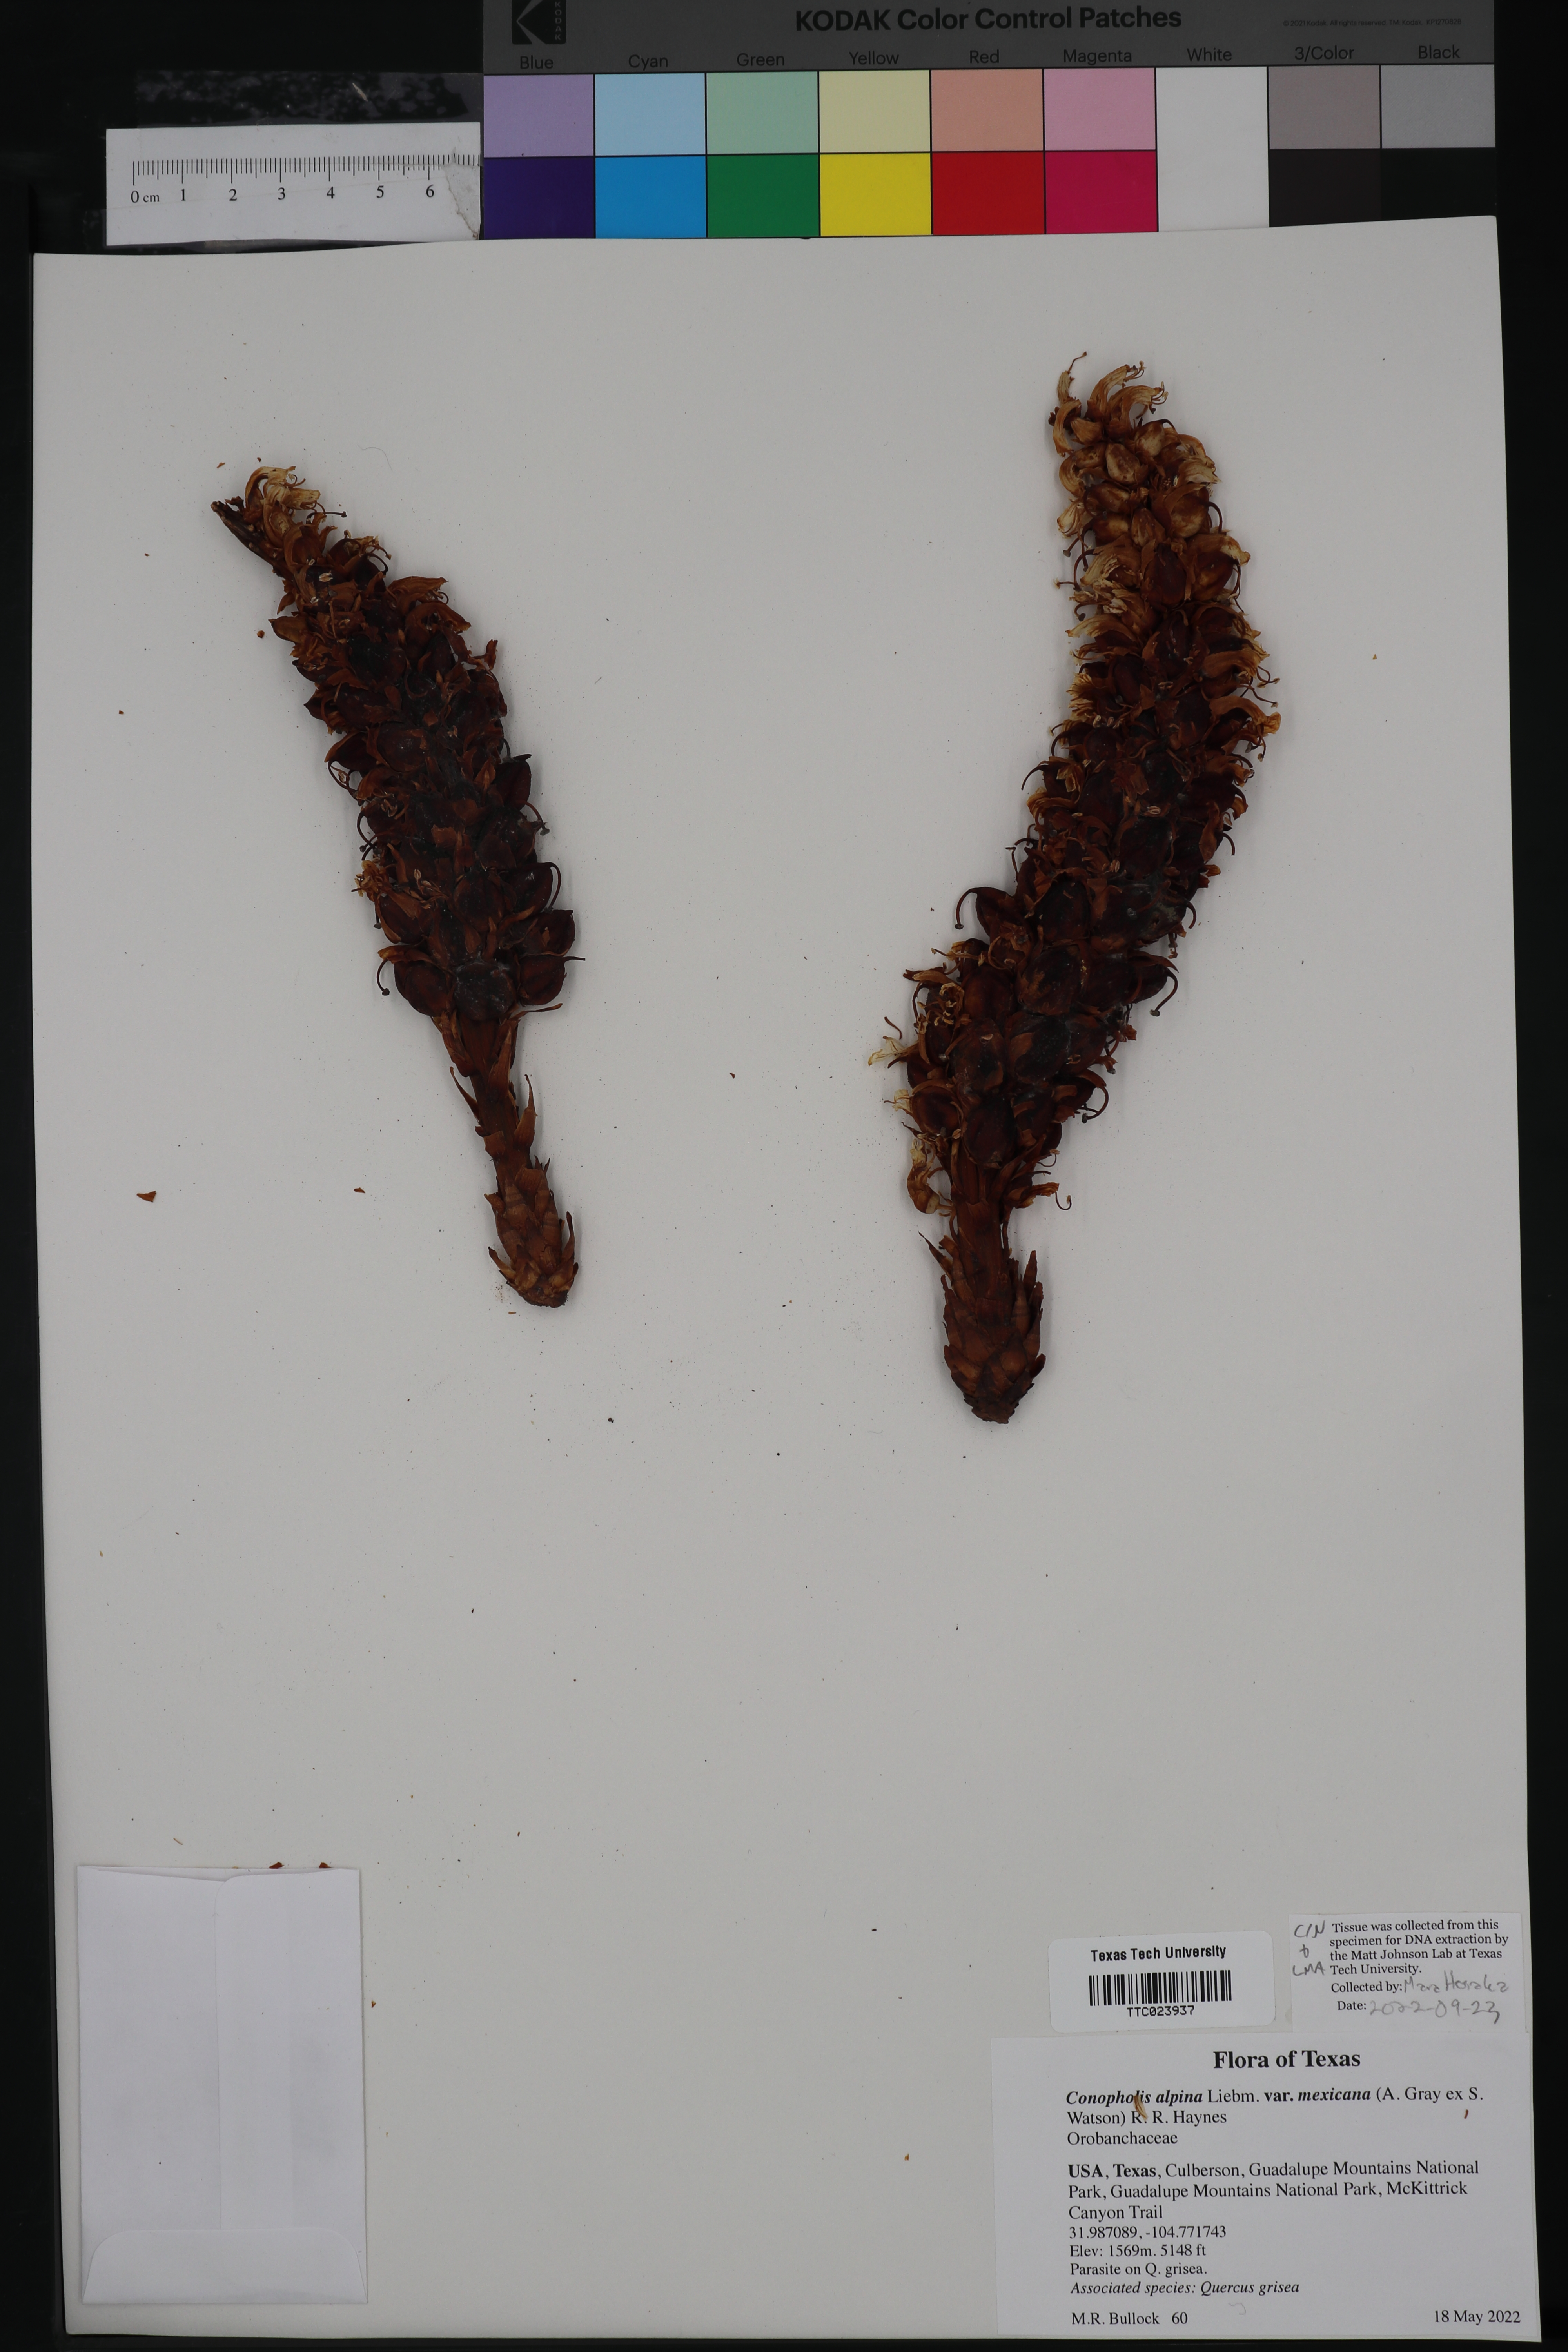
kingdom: Plantae
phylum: Tracheophyta
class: Magnoliopsida
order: Lamiales
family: Orobanchaceae
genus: Conopholis
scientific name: Conopholis alpina
